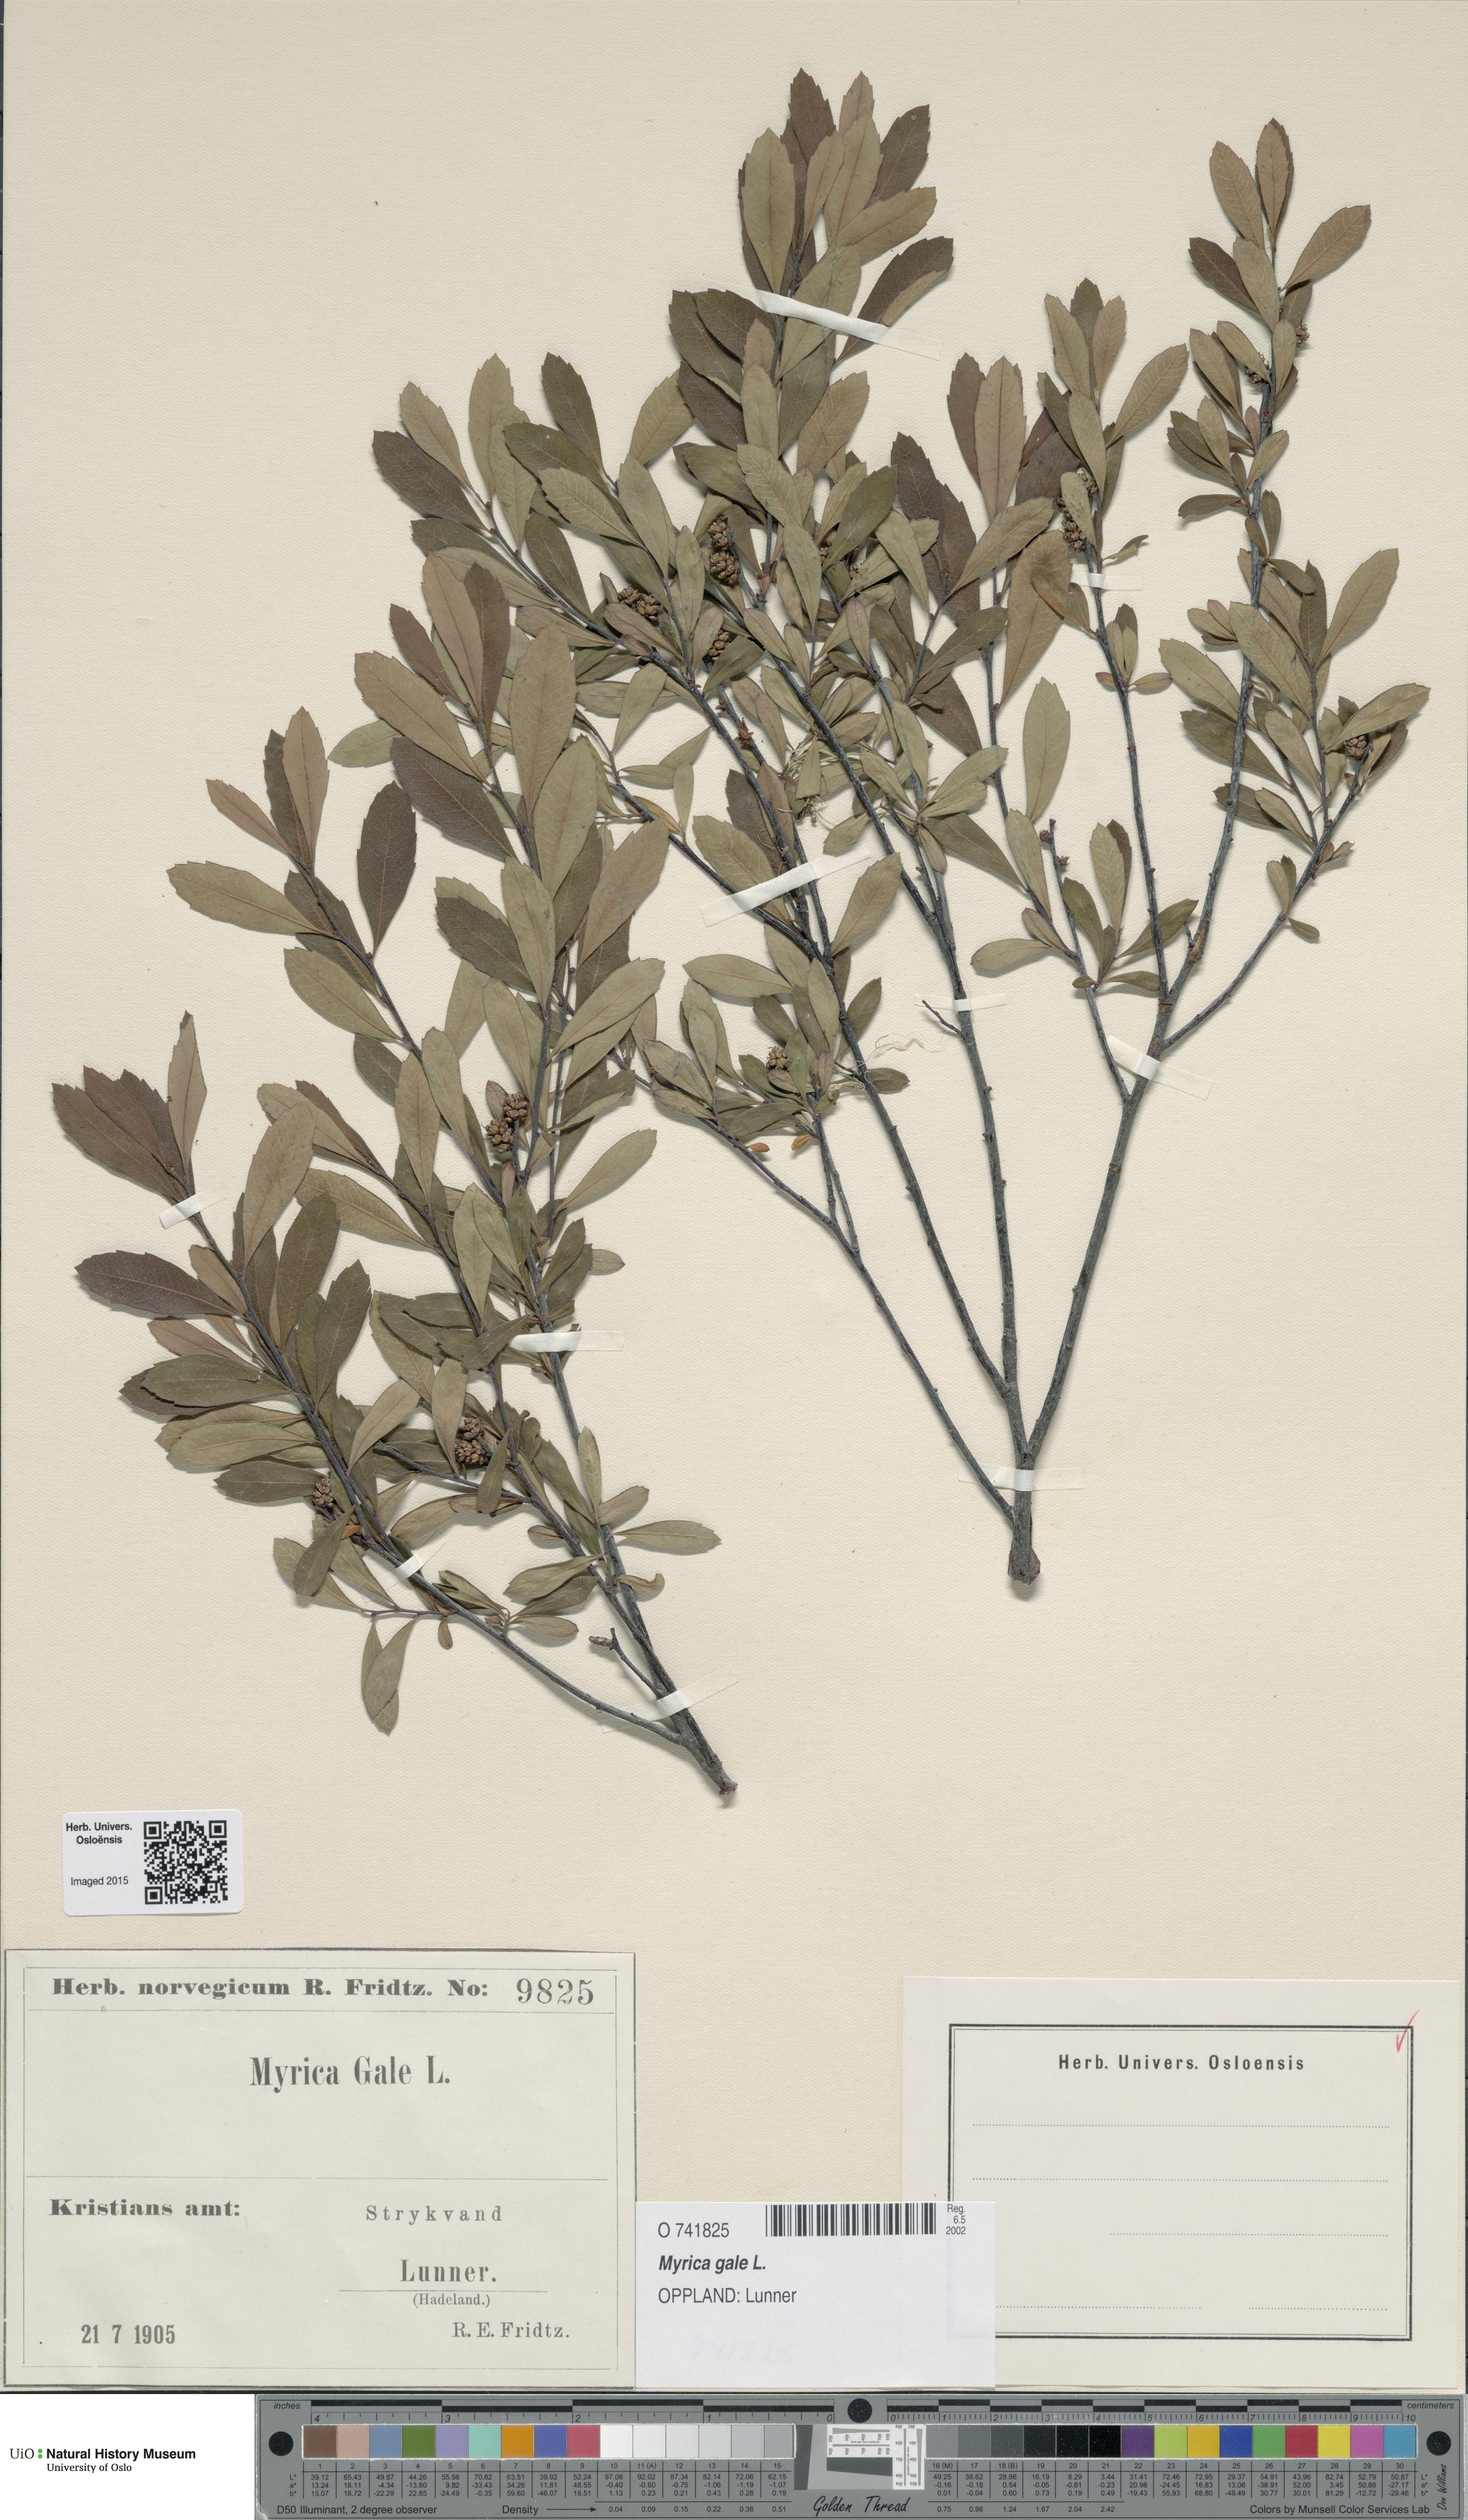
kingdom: Plantae
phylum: Tracheophyta
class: Magnoliopsida
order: Fagales
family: Myricaceae
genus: Myrica
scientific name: Myrica gale
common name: Sweet gale
